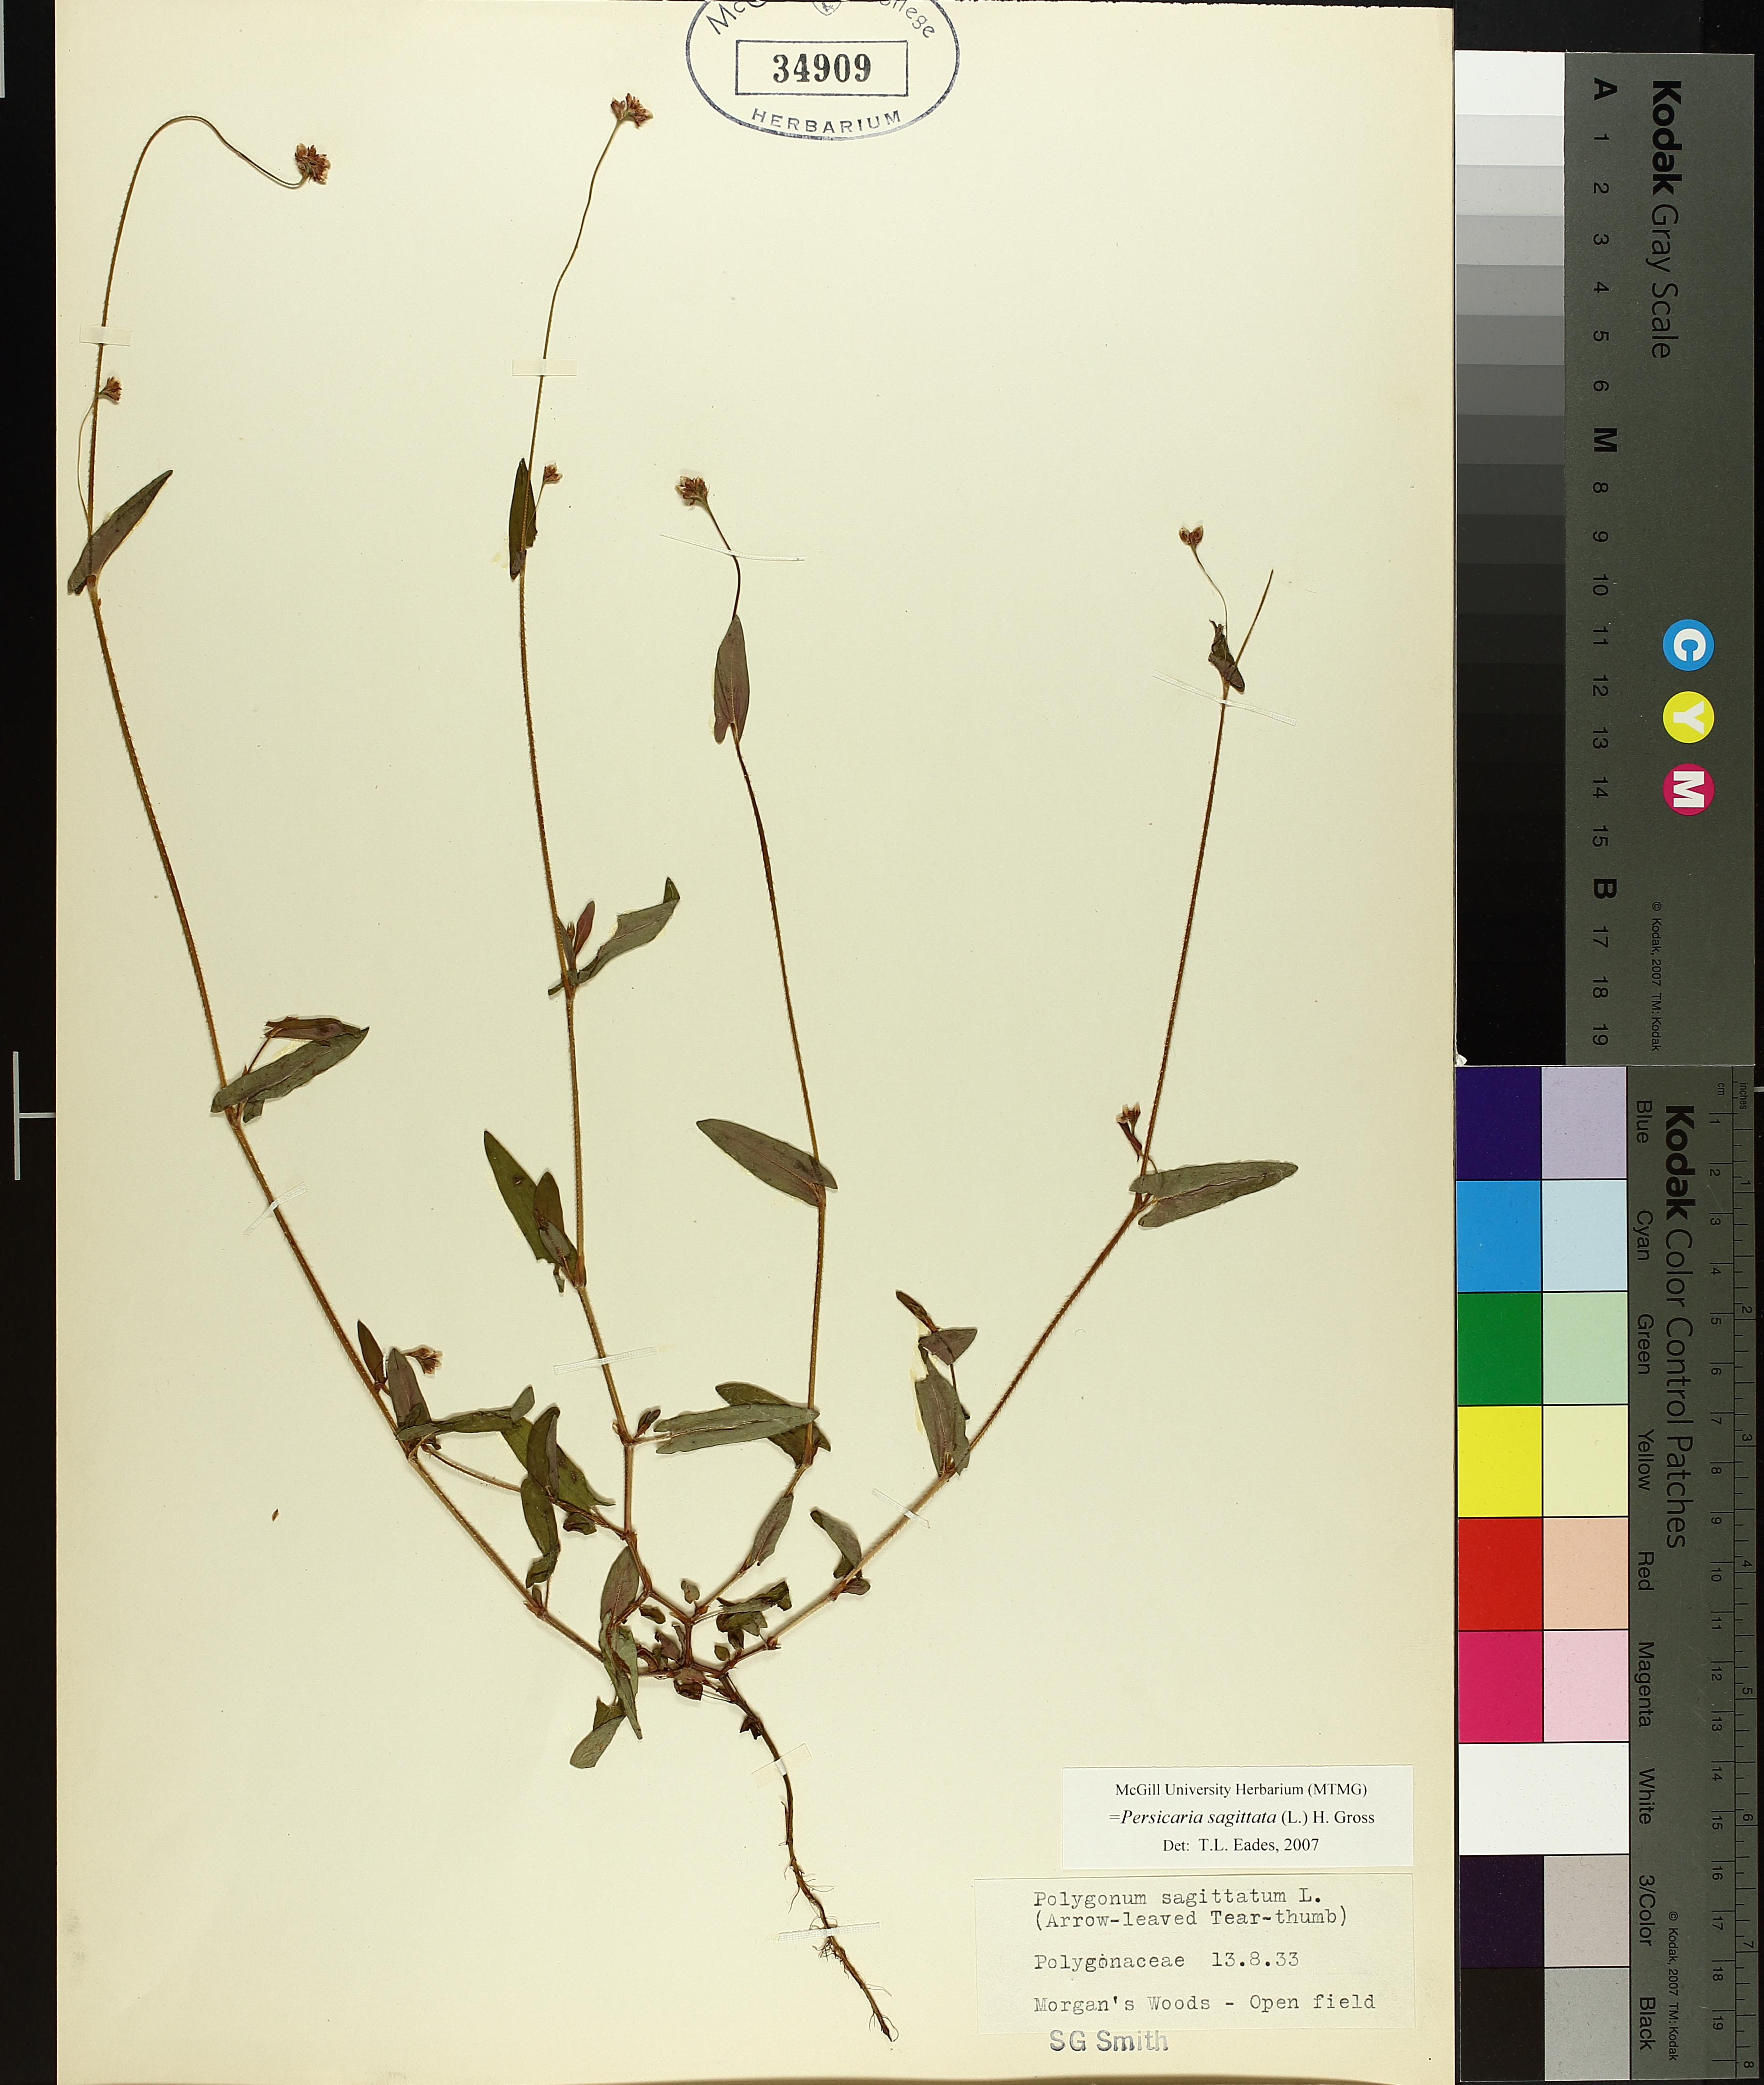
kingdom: Plantae
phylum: Tracheophyta
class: Magnoliopsida
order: Caryophyllales
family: Polygonaceae
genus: Persicaria
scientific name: Persicaria sagittata
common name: American tearthumb
